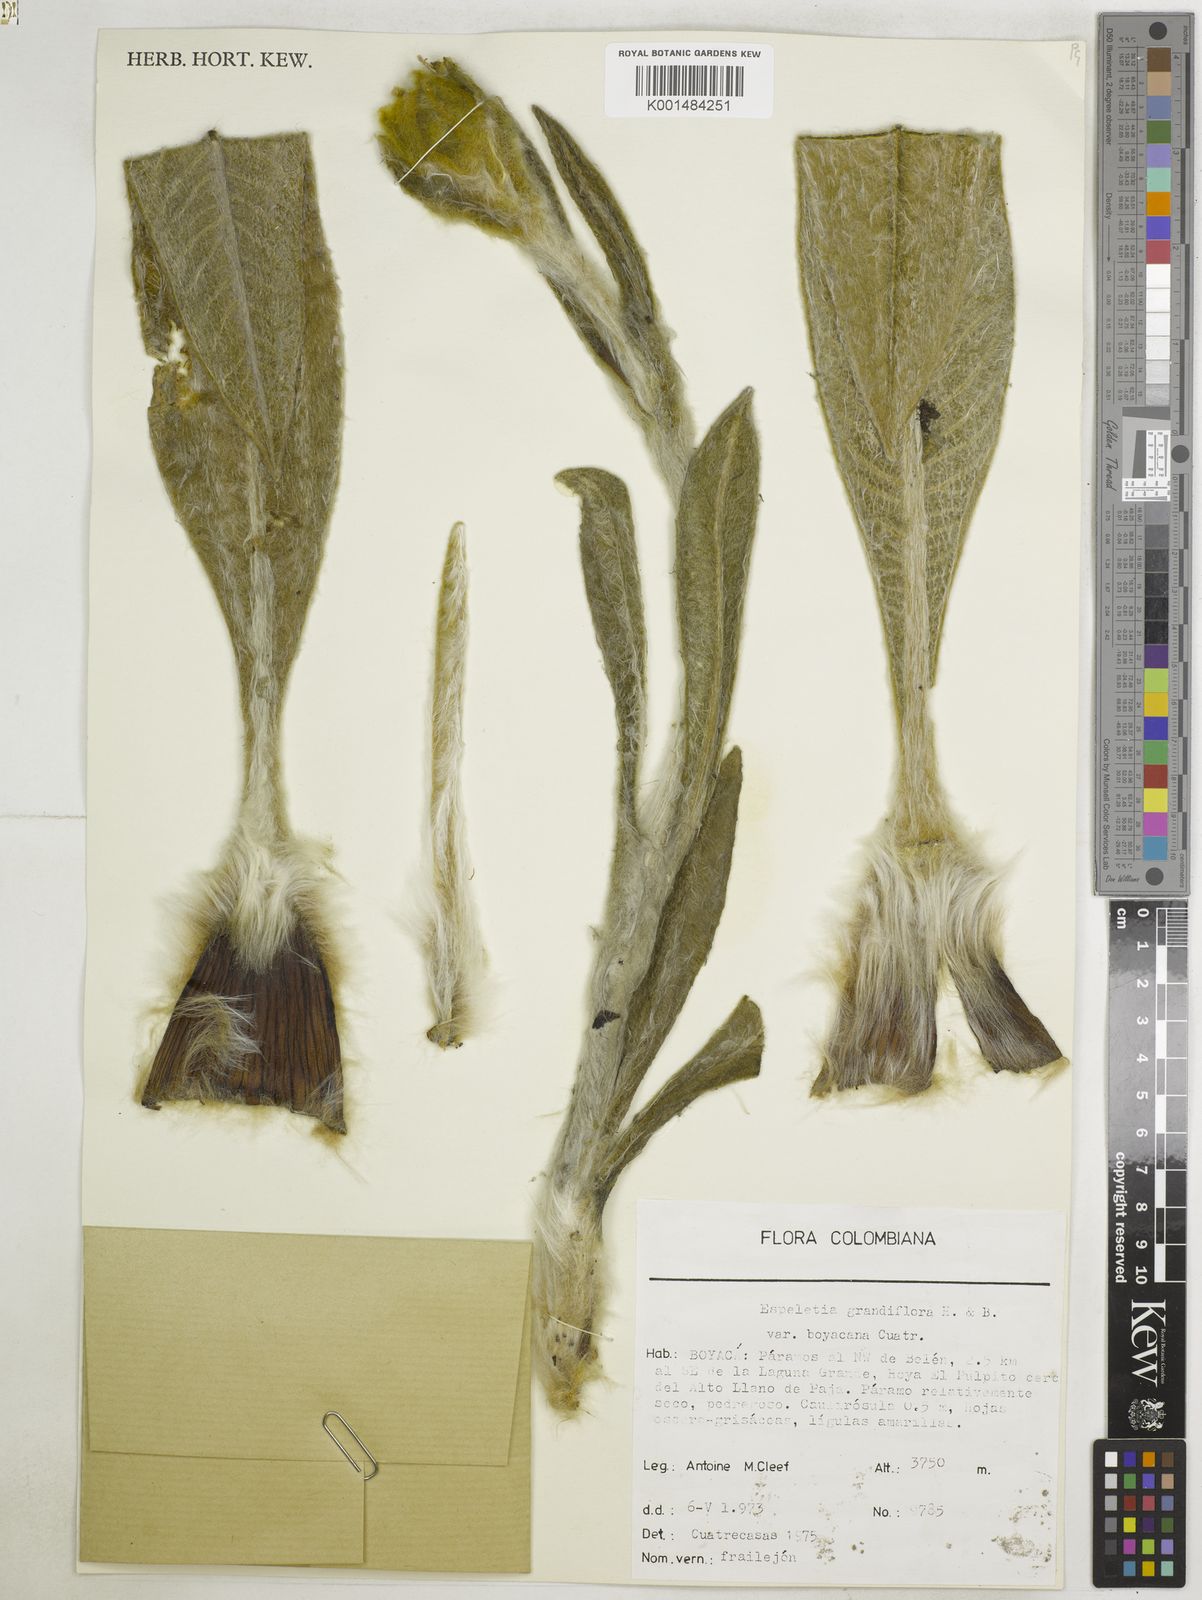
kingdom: Plantae
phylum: Tracheophyta
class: Magnoliopsida
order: Asterales
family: Asteraceae
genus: Espeletia
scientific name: Espeletia grandiflora
